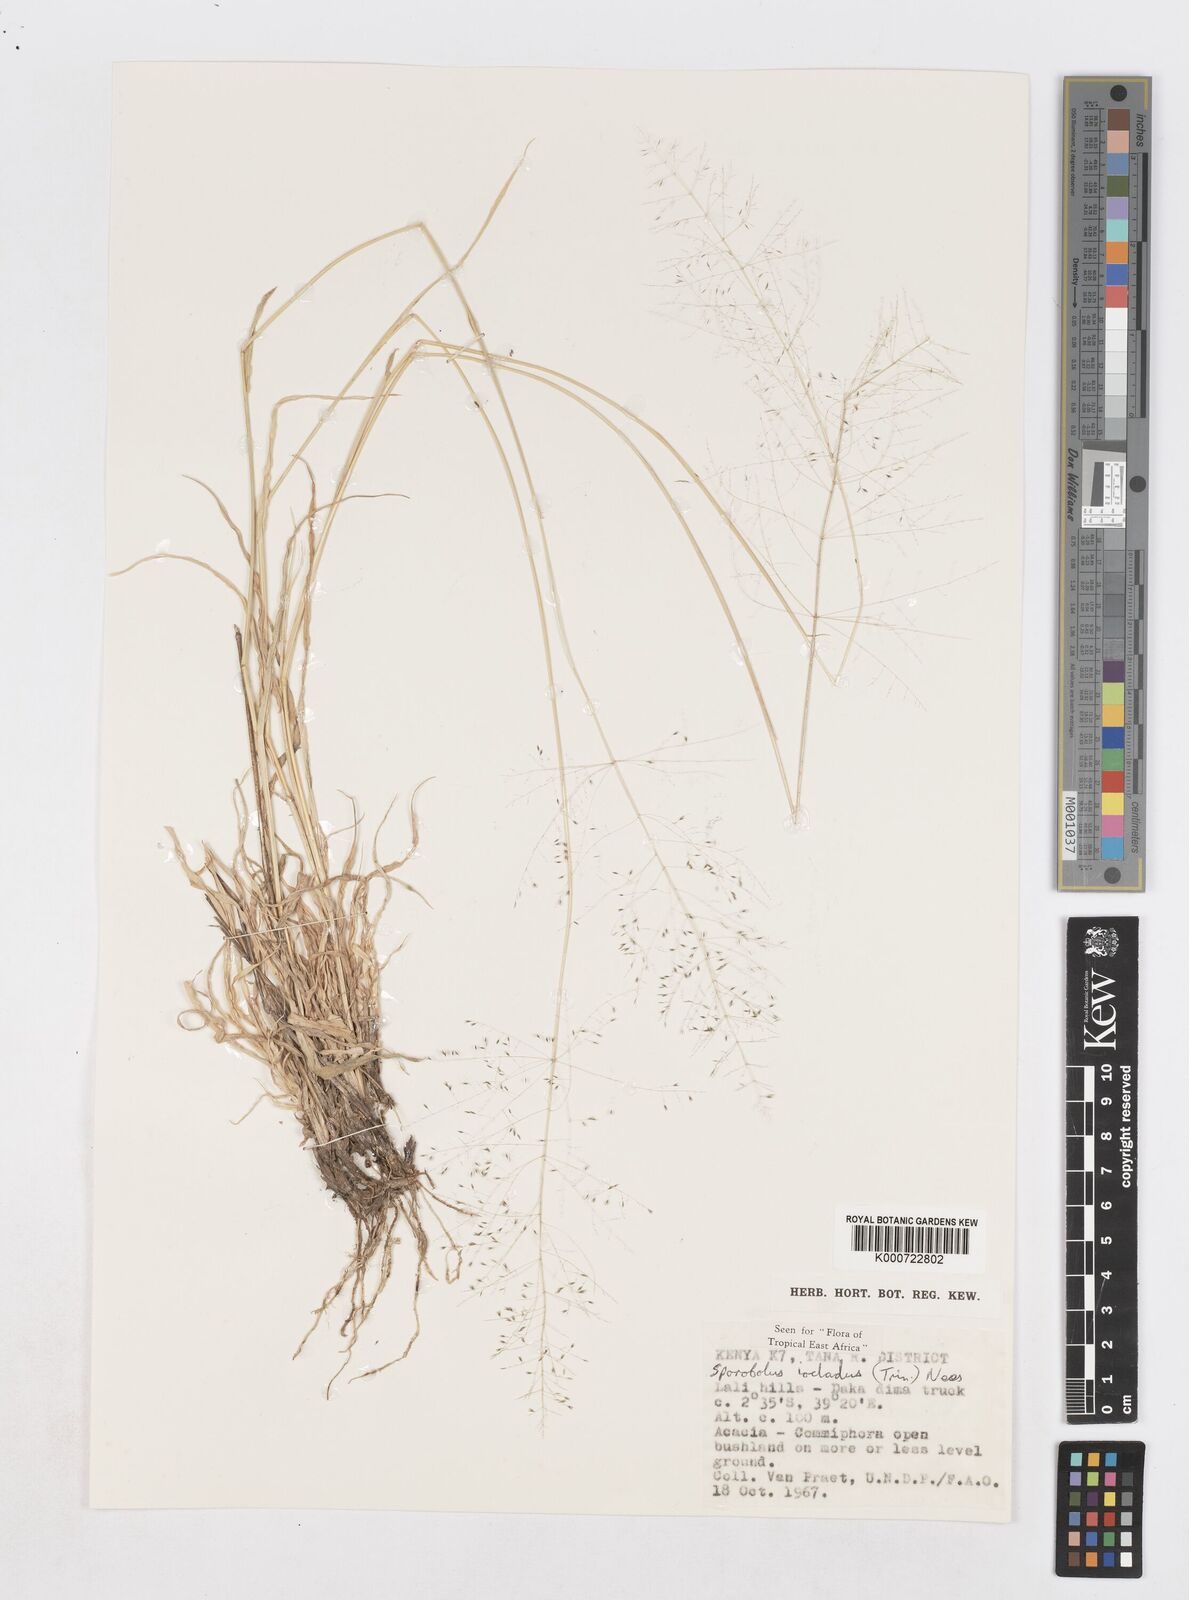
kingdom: Plantae
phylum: Tracheophyta
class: Liliopsida
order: Poales
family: Poaceae
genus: Sporobolus
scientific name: Sporobolus ioclados
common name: Pan dropseed
